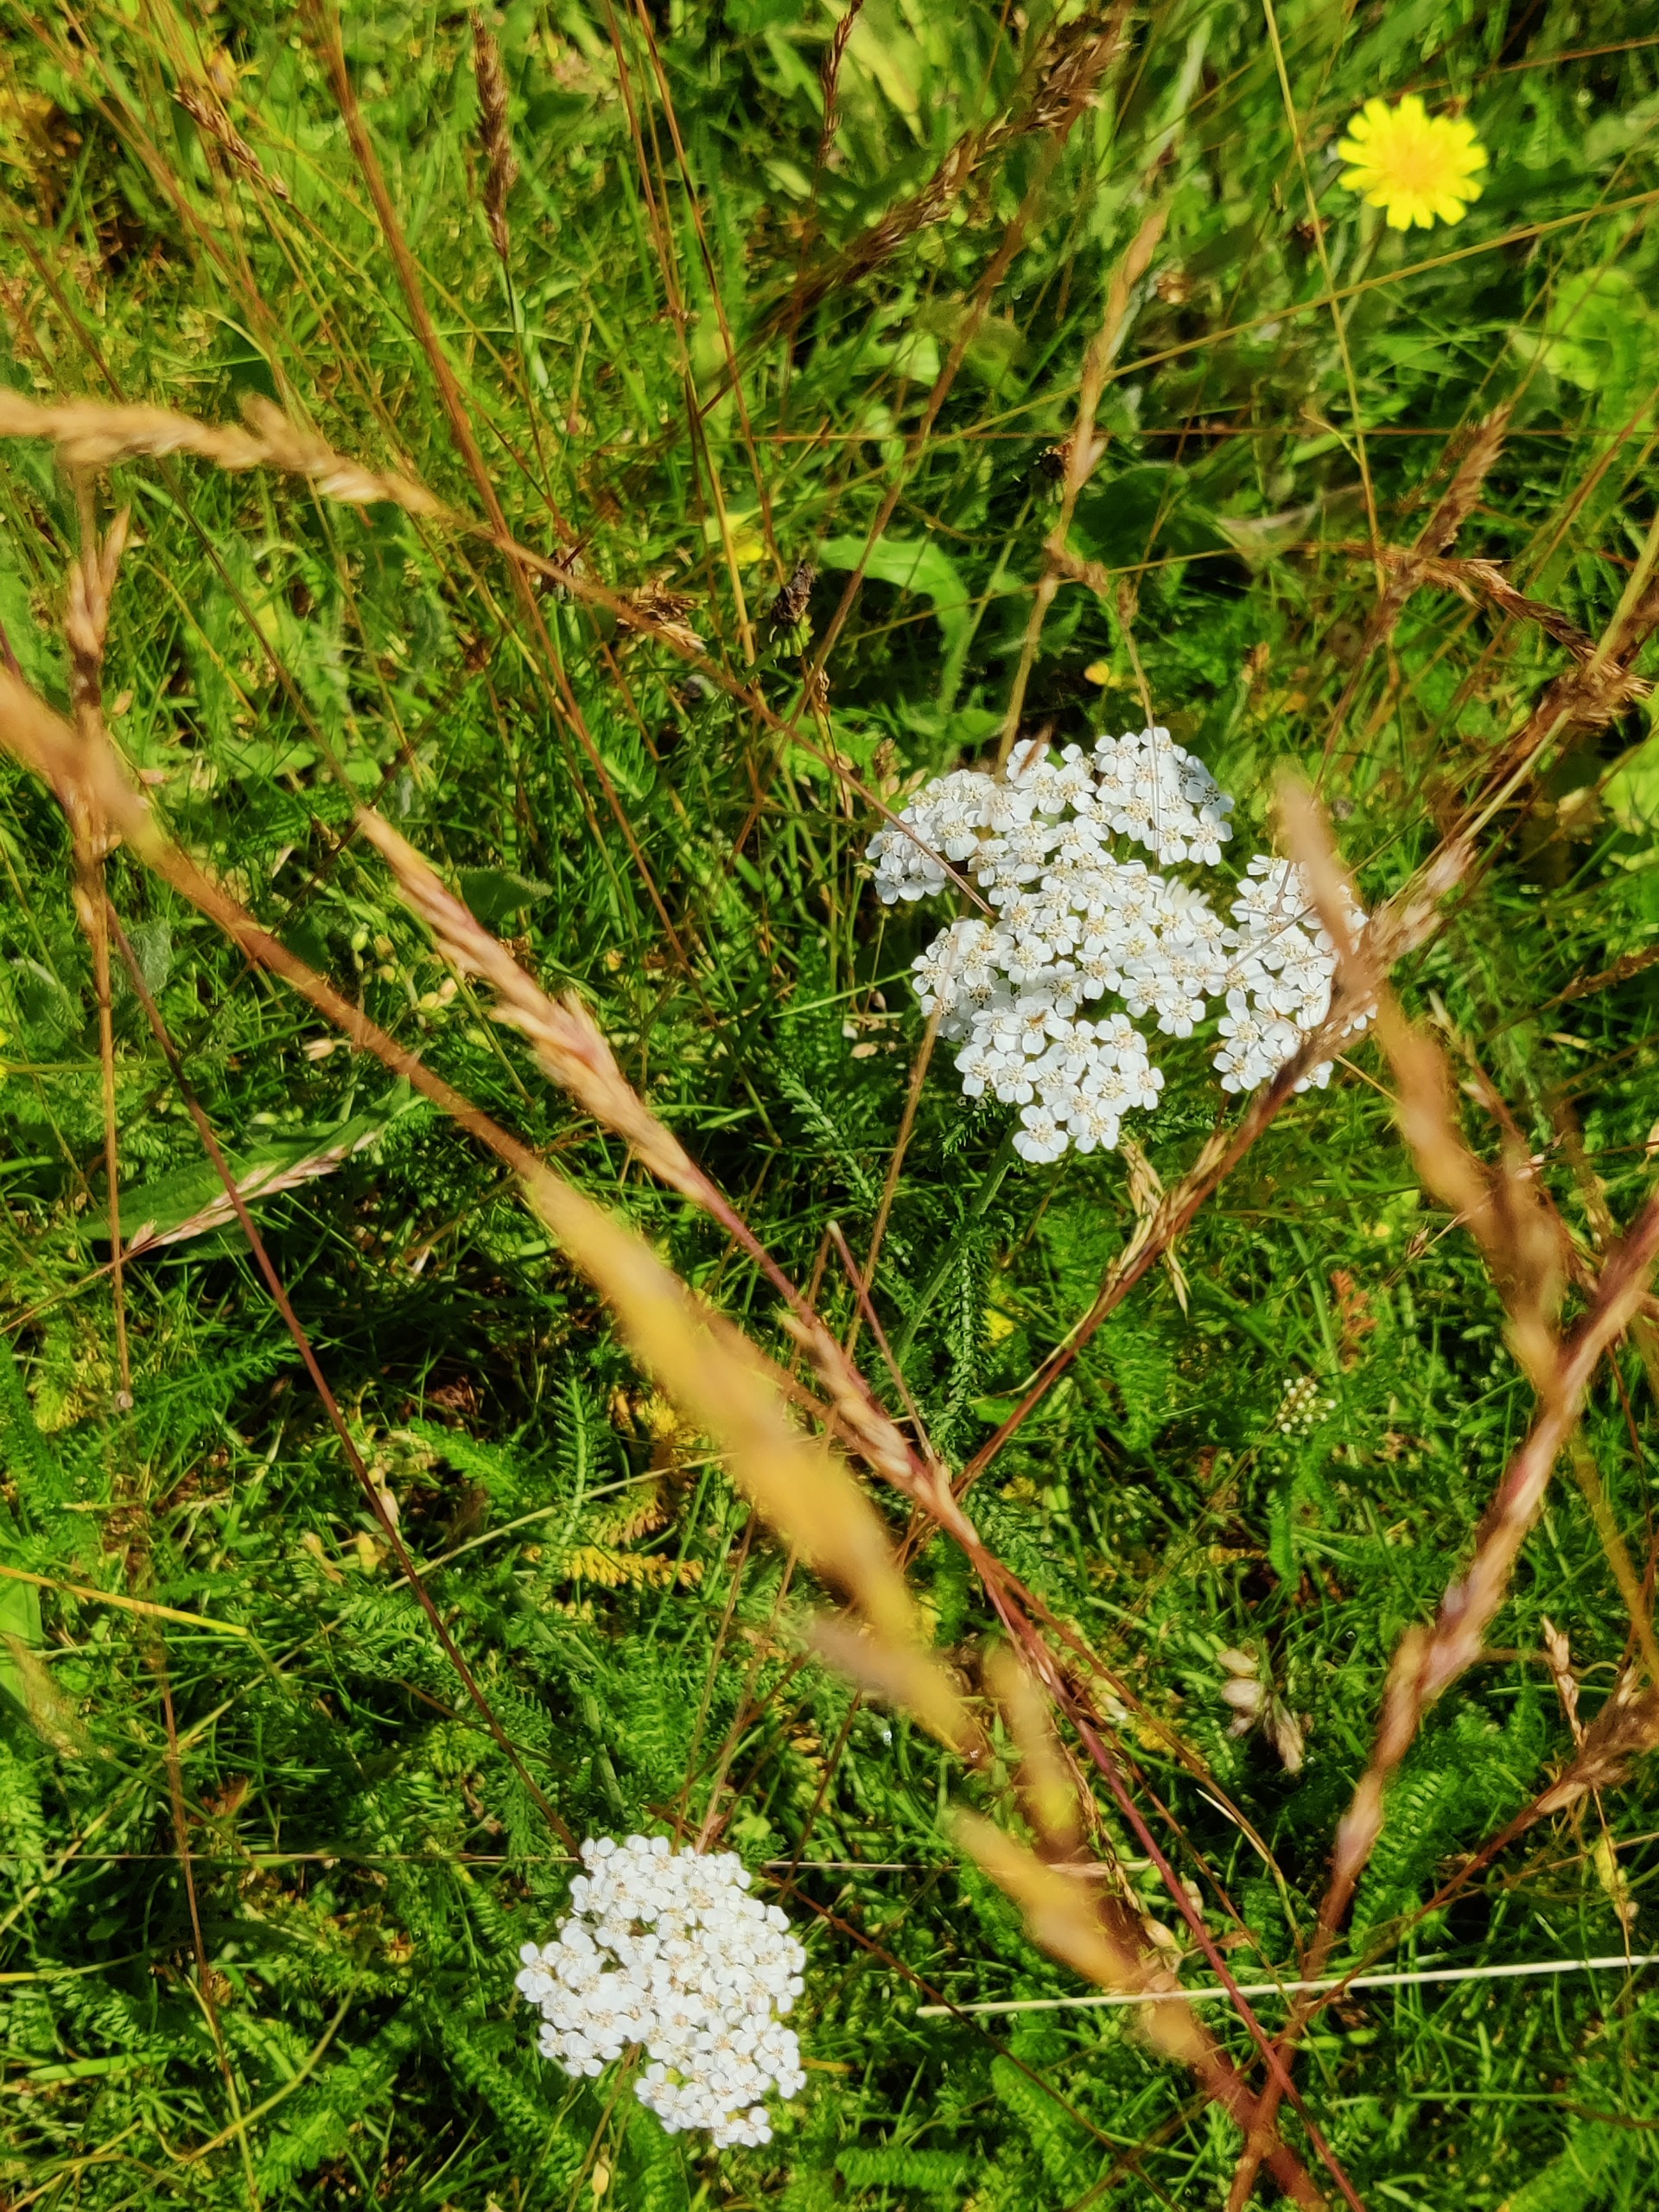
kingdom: Plantae
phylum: Tracheophyta
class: Magnoliopsida
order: Asterales
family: Asteraceae
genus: Achillea
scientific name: Achillea millefolium
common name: Almindelig røllike
